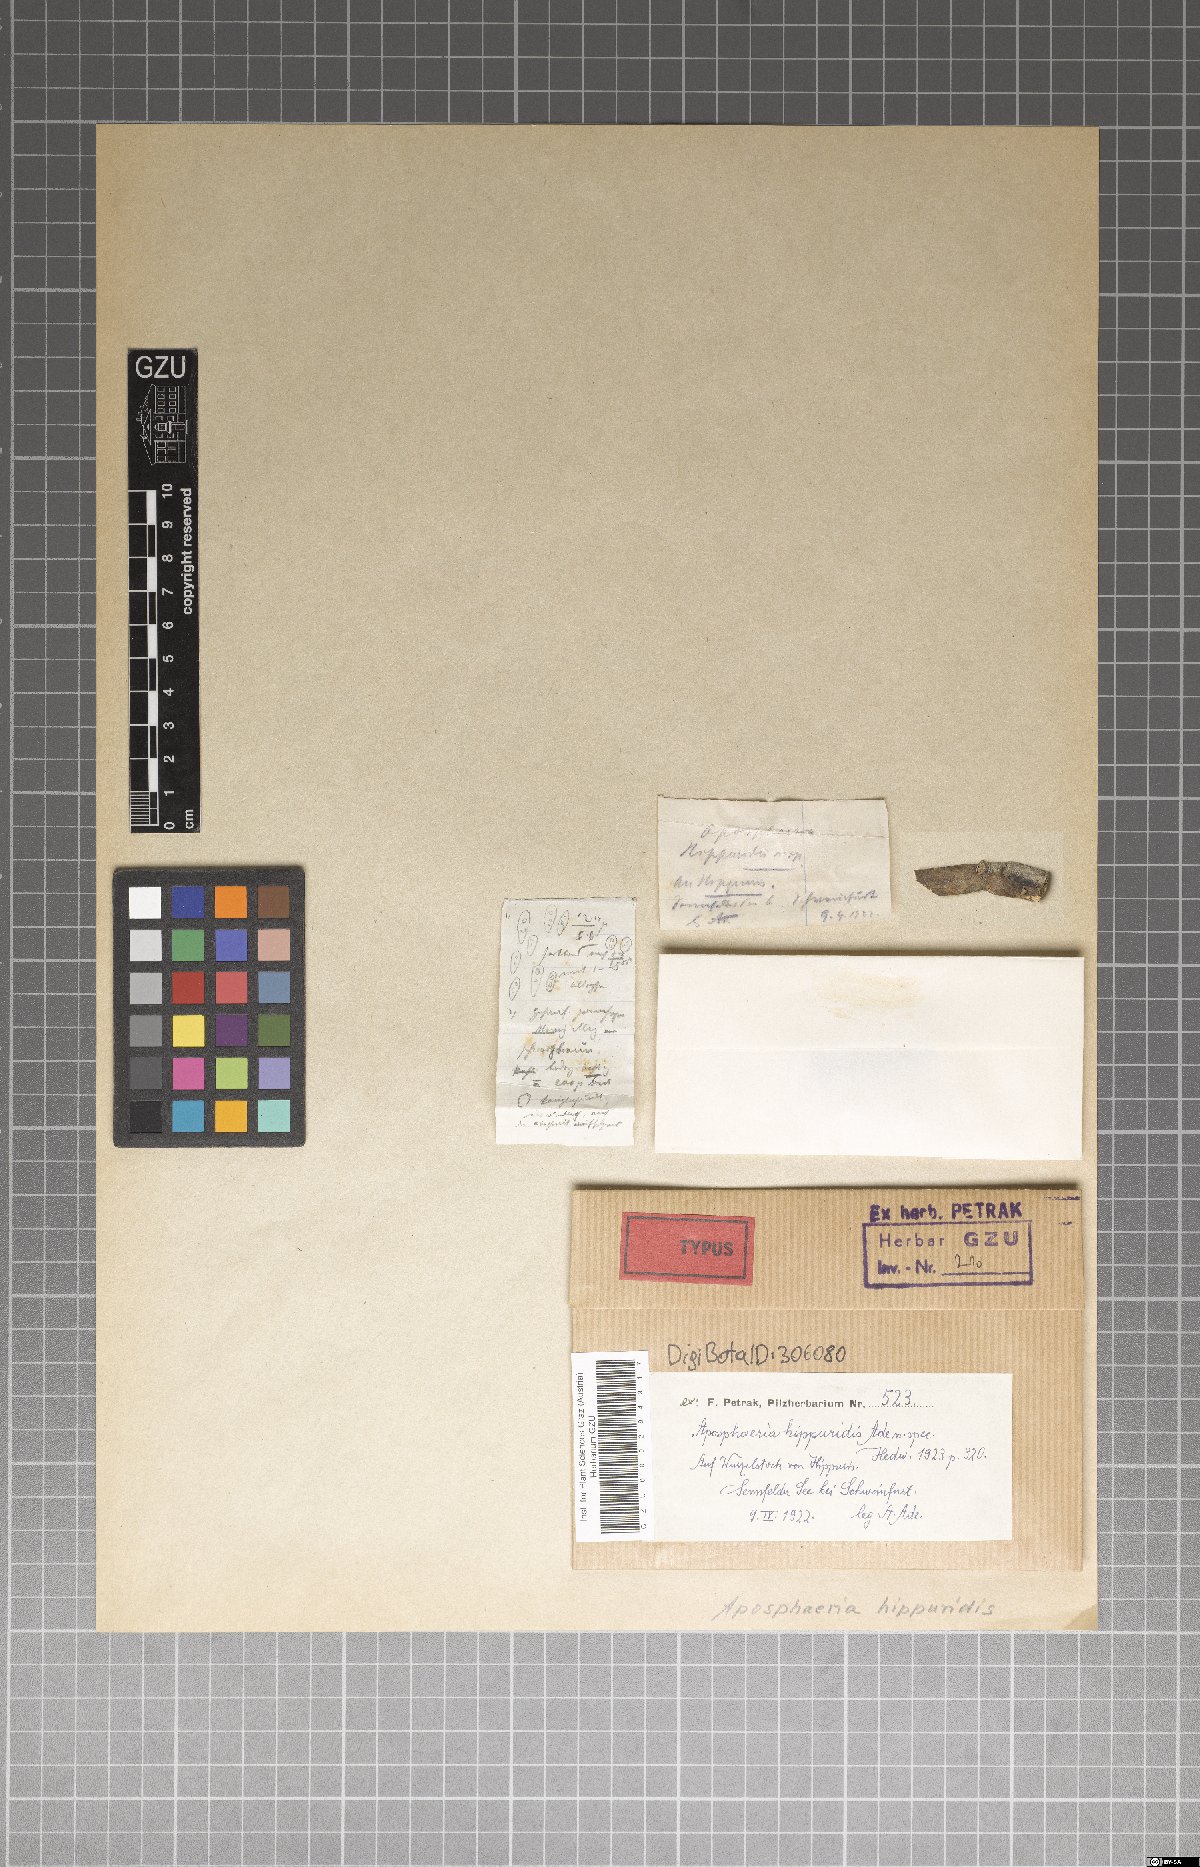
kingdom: Fungi
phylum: Ascomycota
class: Dothideomycetes
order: Pleosporales
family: Melanommataceae
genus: Aposphaeria
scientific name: Aposphaeria hippuridis
